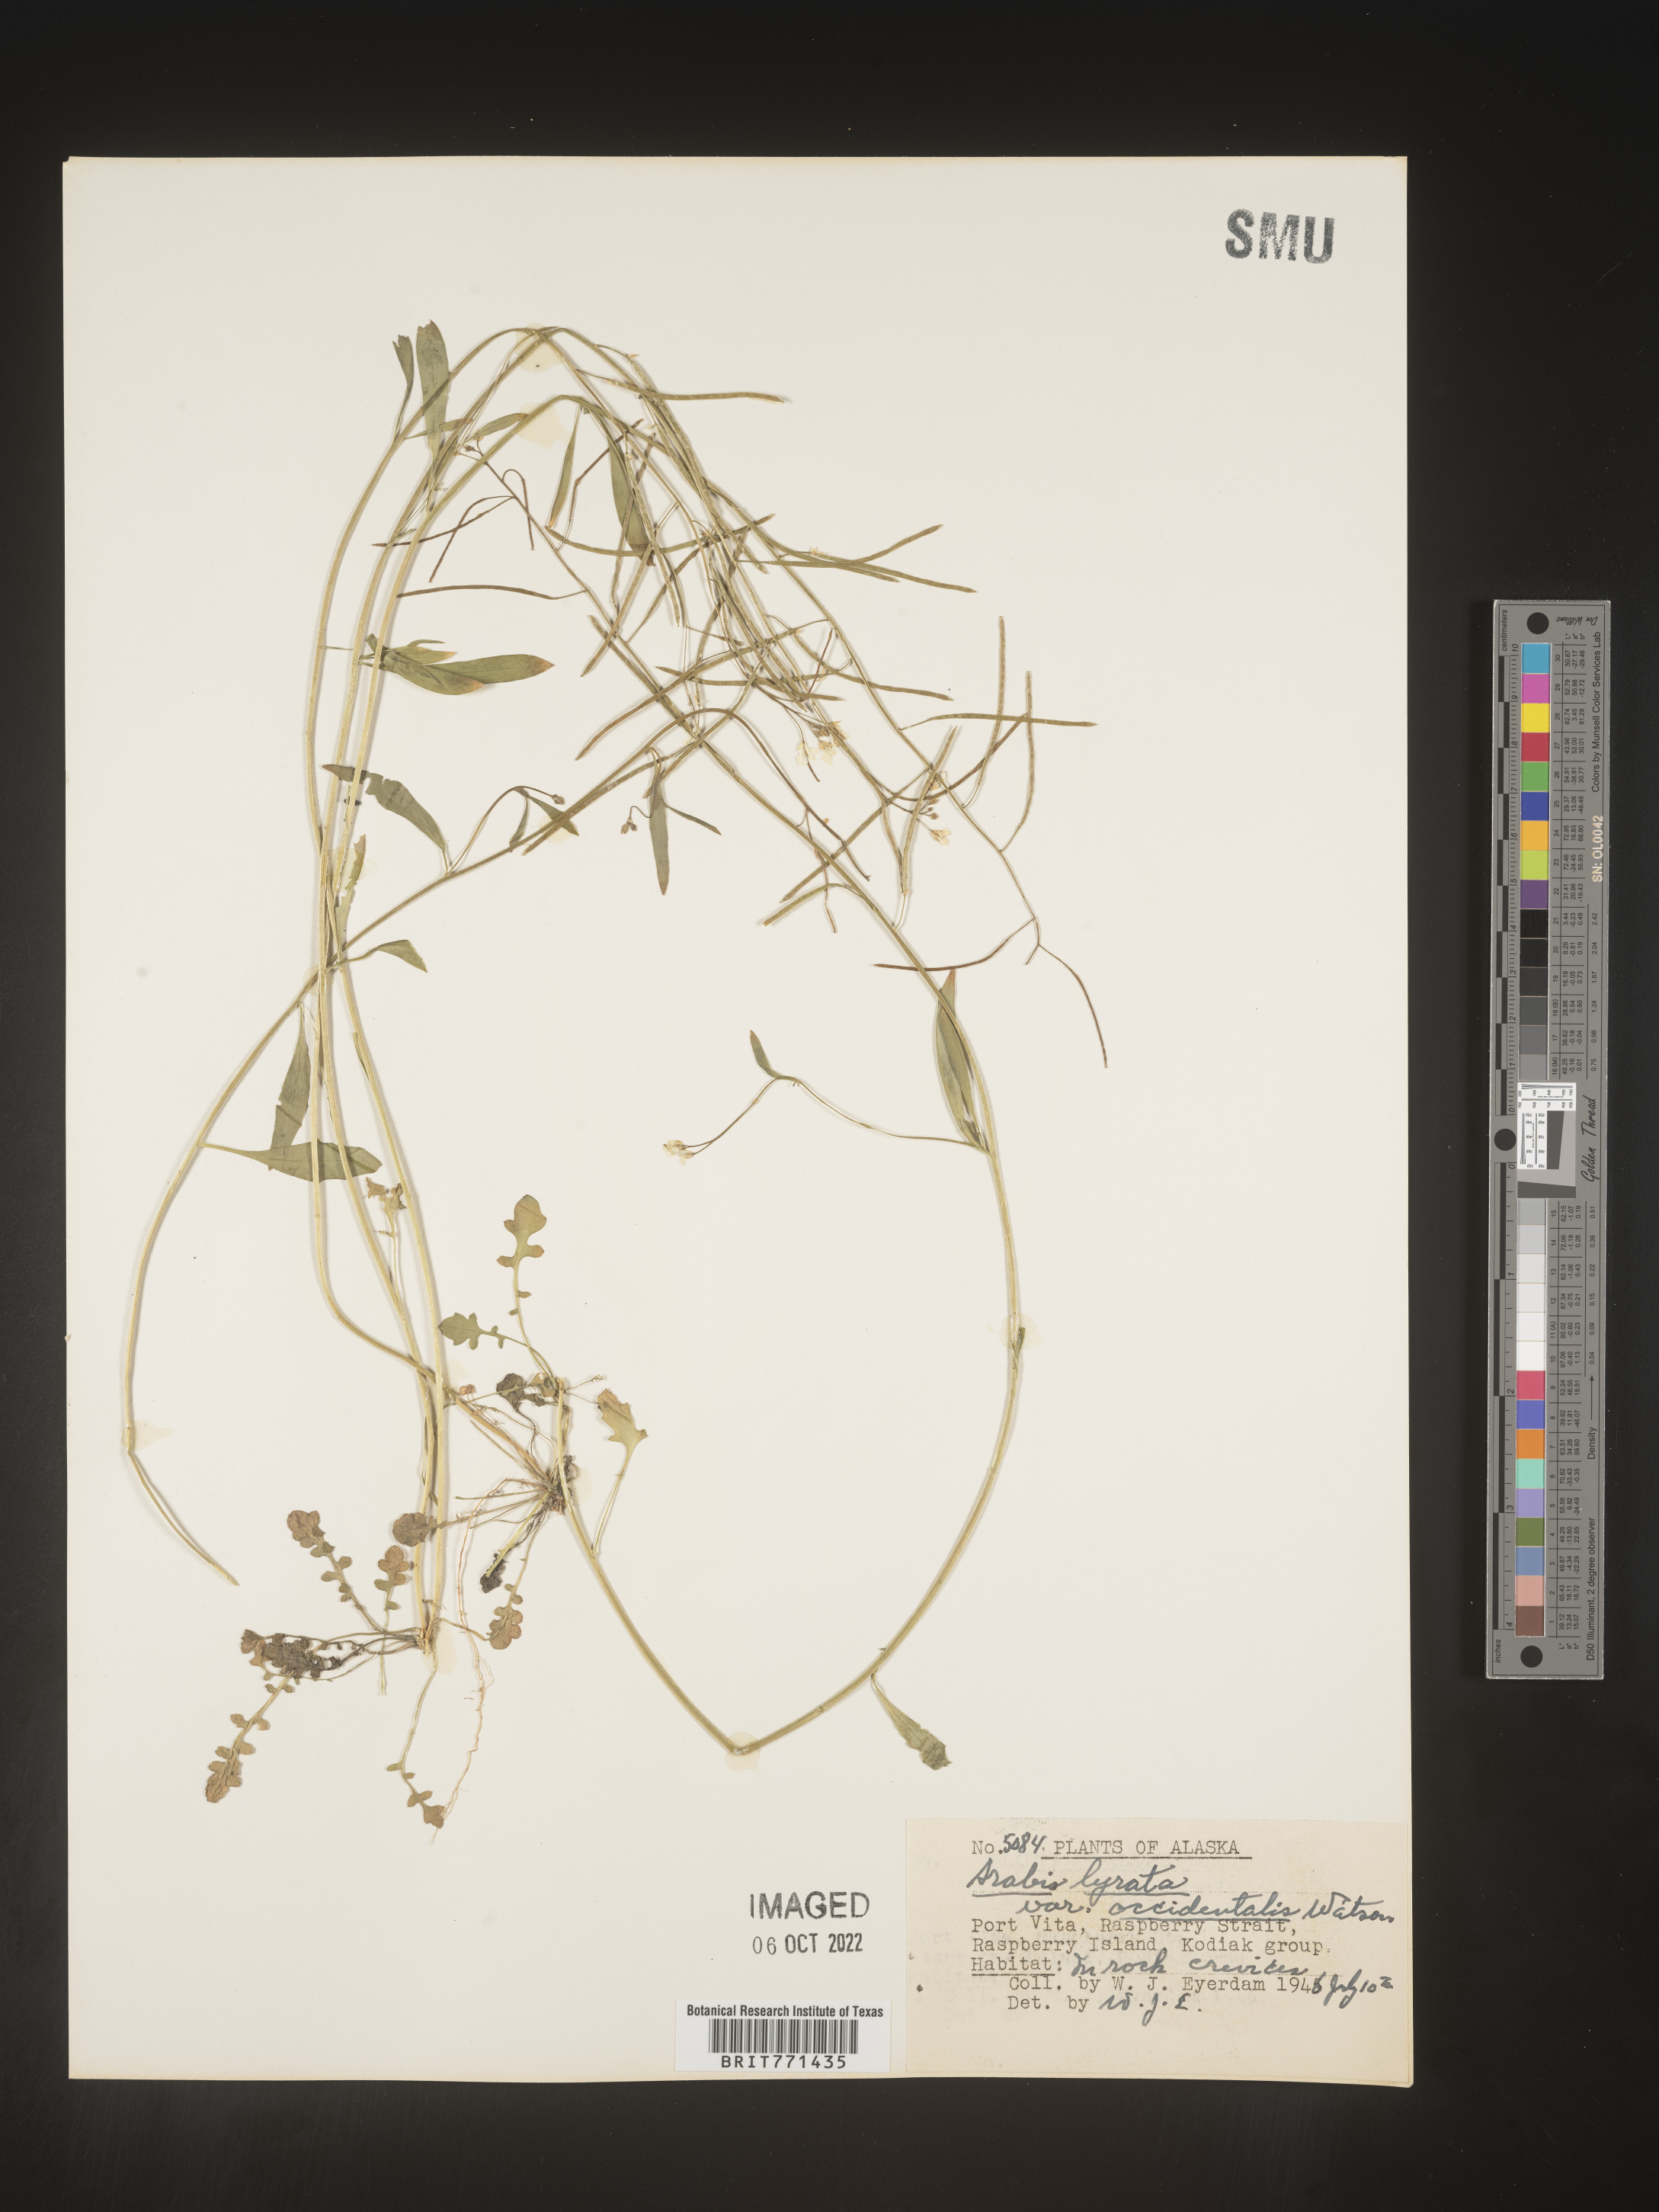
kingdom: Plantae
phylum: Tracheophyta
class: Magnoliopsida
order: Brassicales
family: Brassicaceae
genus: Arabidopsis
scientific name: Arabidopsis lyrata
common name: Lyrate rockcress
